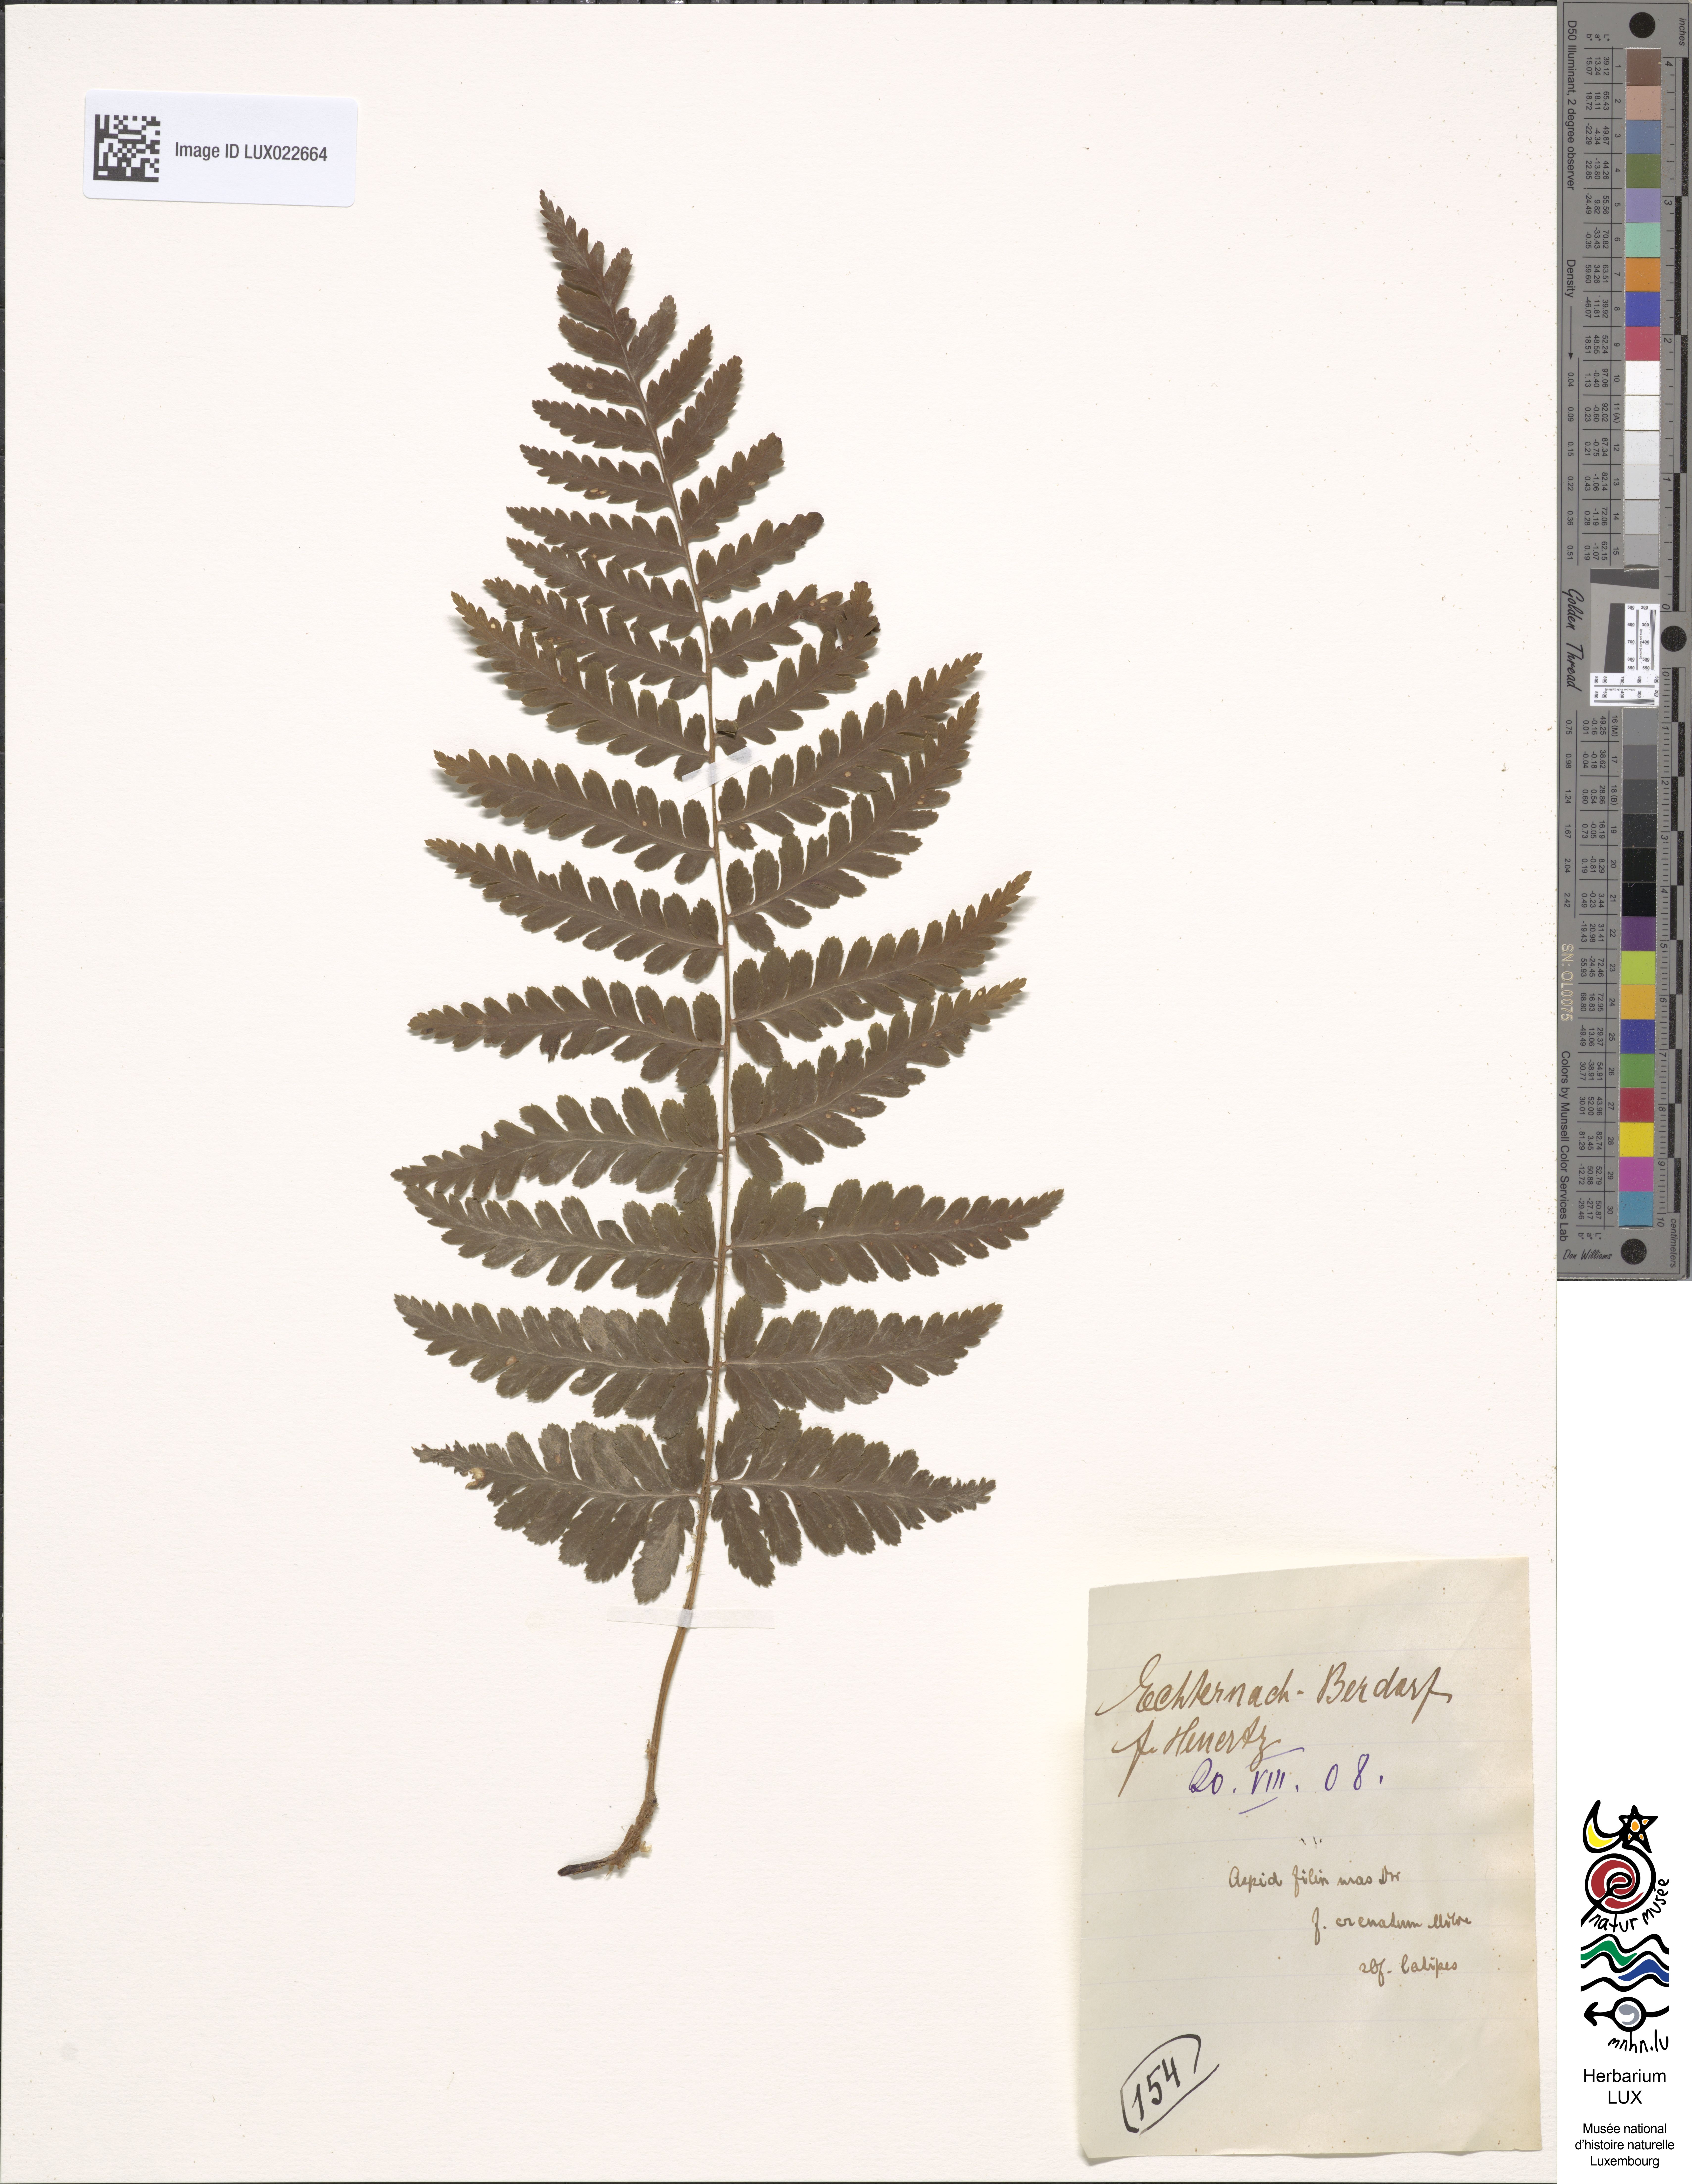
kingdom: Plantae
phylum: Tracheophyta
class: Polypodiopsida
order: Polypodiales
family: Dryopteridaceae
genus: Dryopteris
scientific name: Dryopteris filix-mas
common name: Male fern
